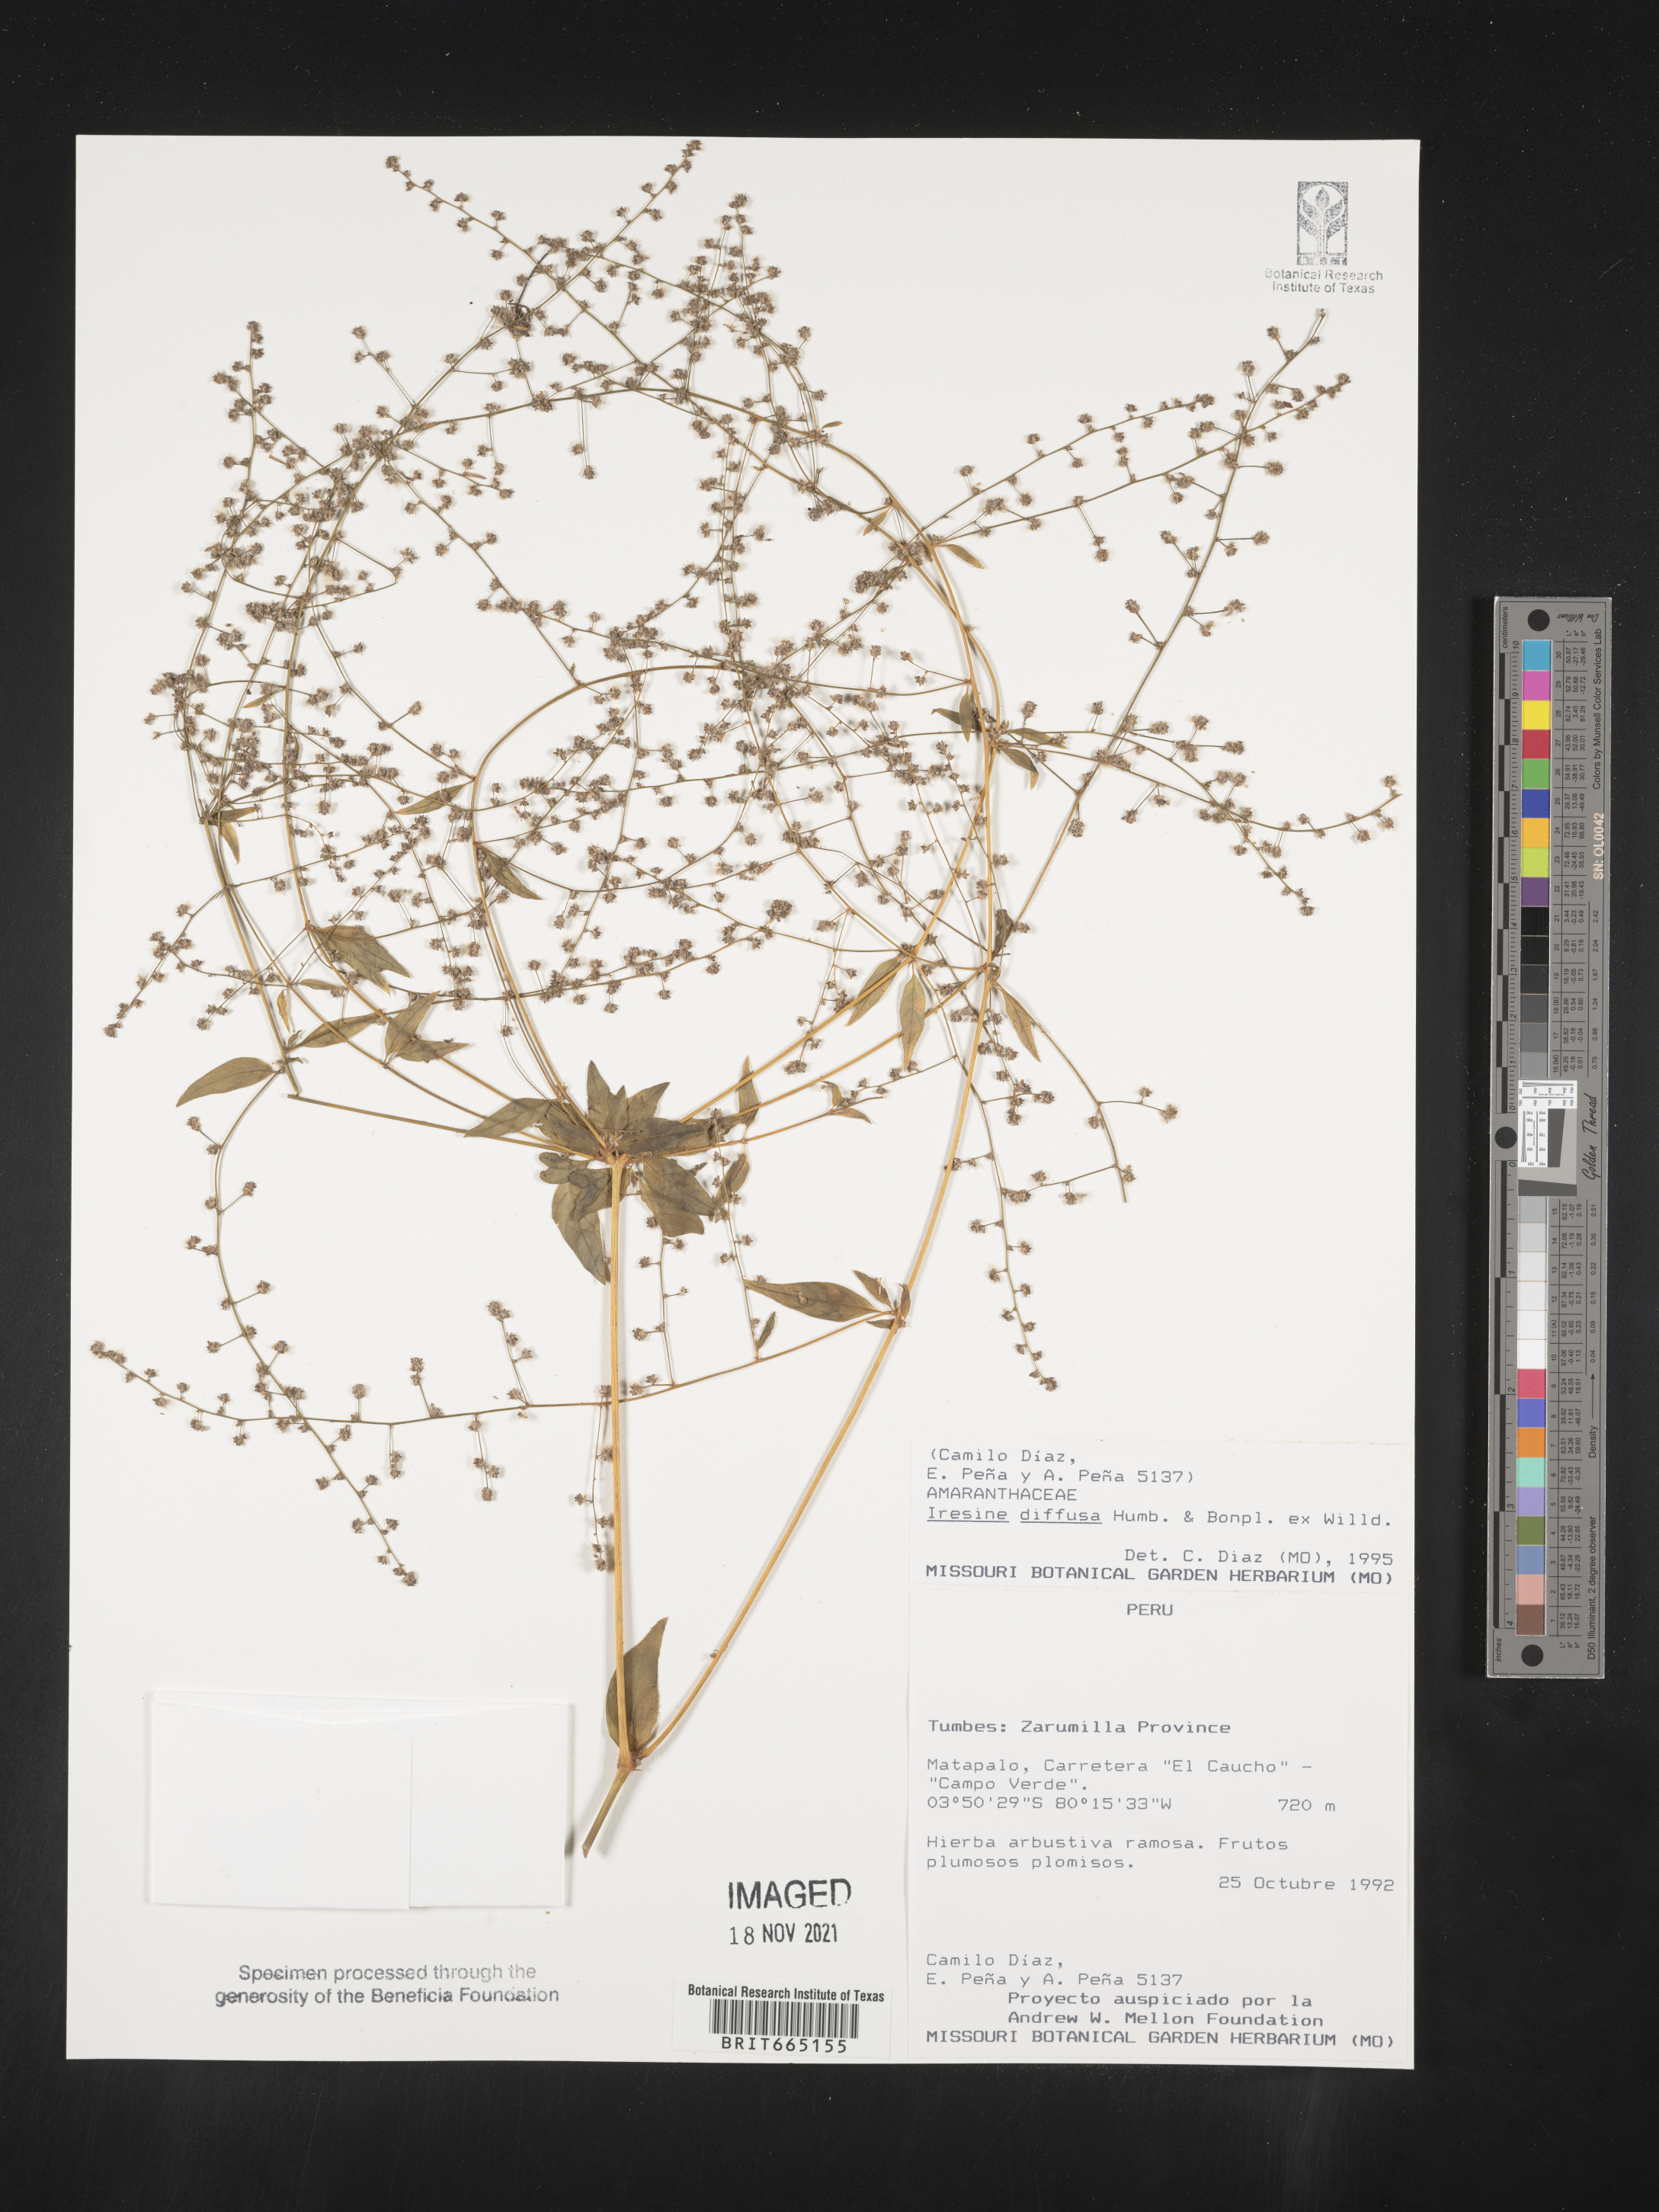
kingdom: Plantae
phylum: Tracheophyta
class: Magnoliopsida
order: Caryophyllales
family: Amaranthaceae
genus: Iresine
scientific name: Iresine
